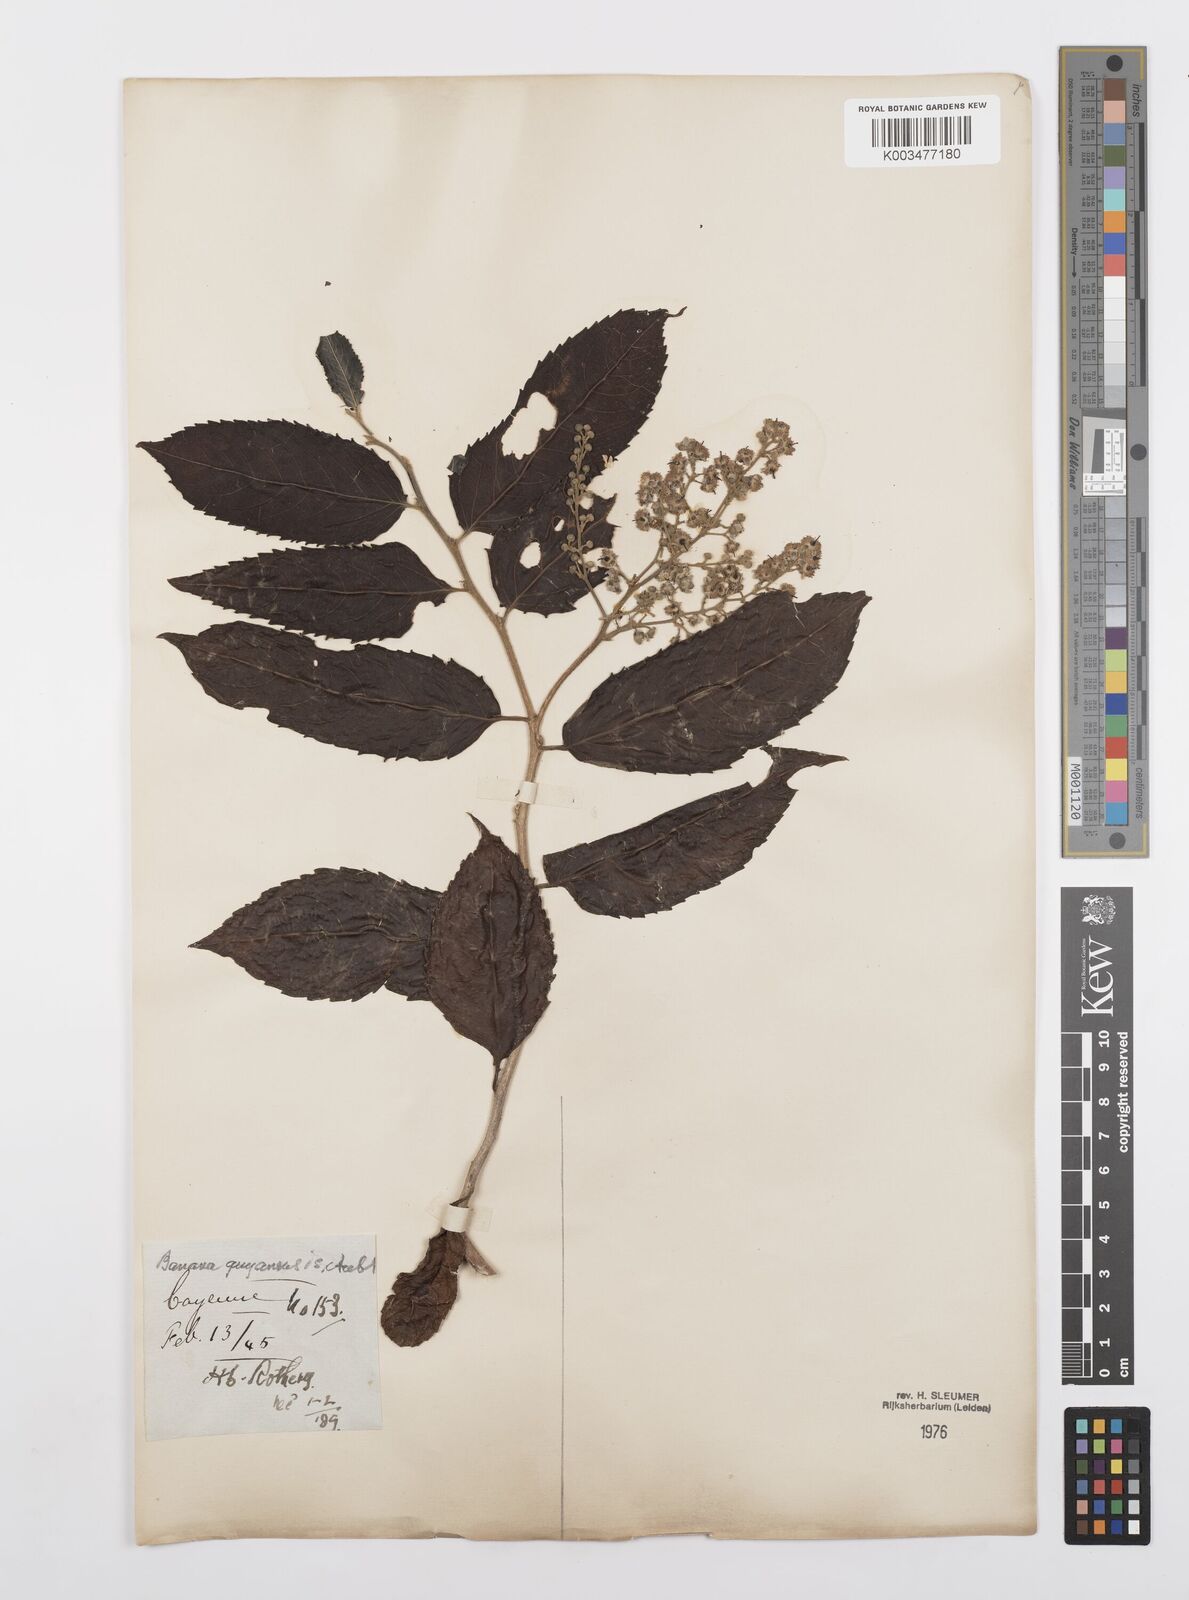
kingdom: Plantae
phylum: Tracheophyta
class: Magnoliopsida
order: Malpighiales
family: Salicaceae
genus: Banara
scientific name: Banara guianensis
